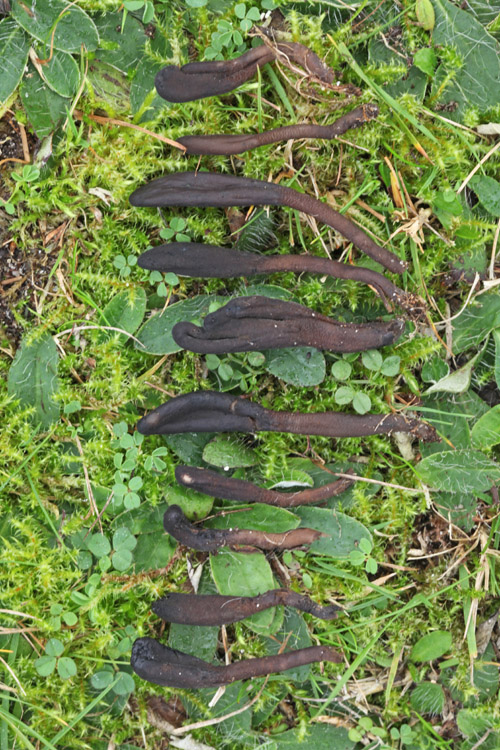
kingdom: Fungi
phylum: Ascomycota
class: Geoglossomycetes
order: Geoglossales
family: Geoglossaceae
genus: Hemileucoglossum
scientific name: Hemileucoglossum elongatum
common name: småsporet jordtunge
